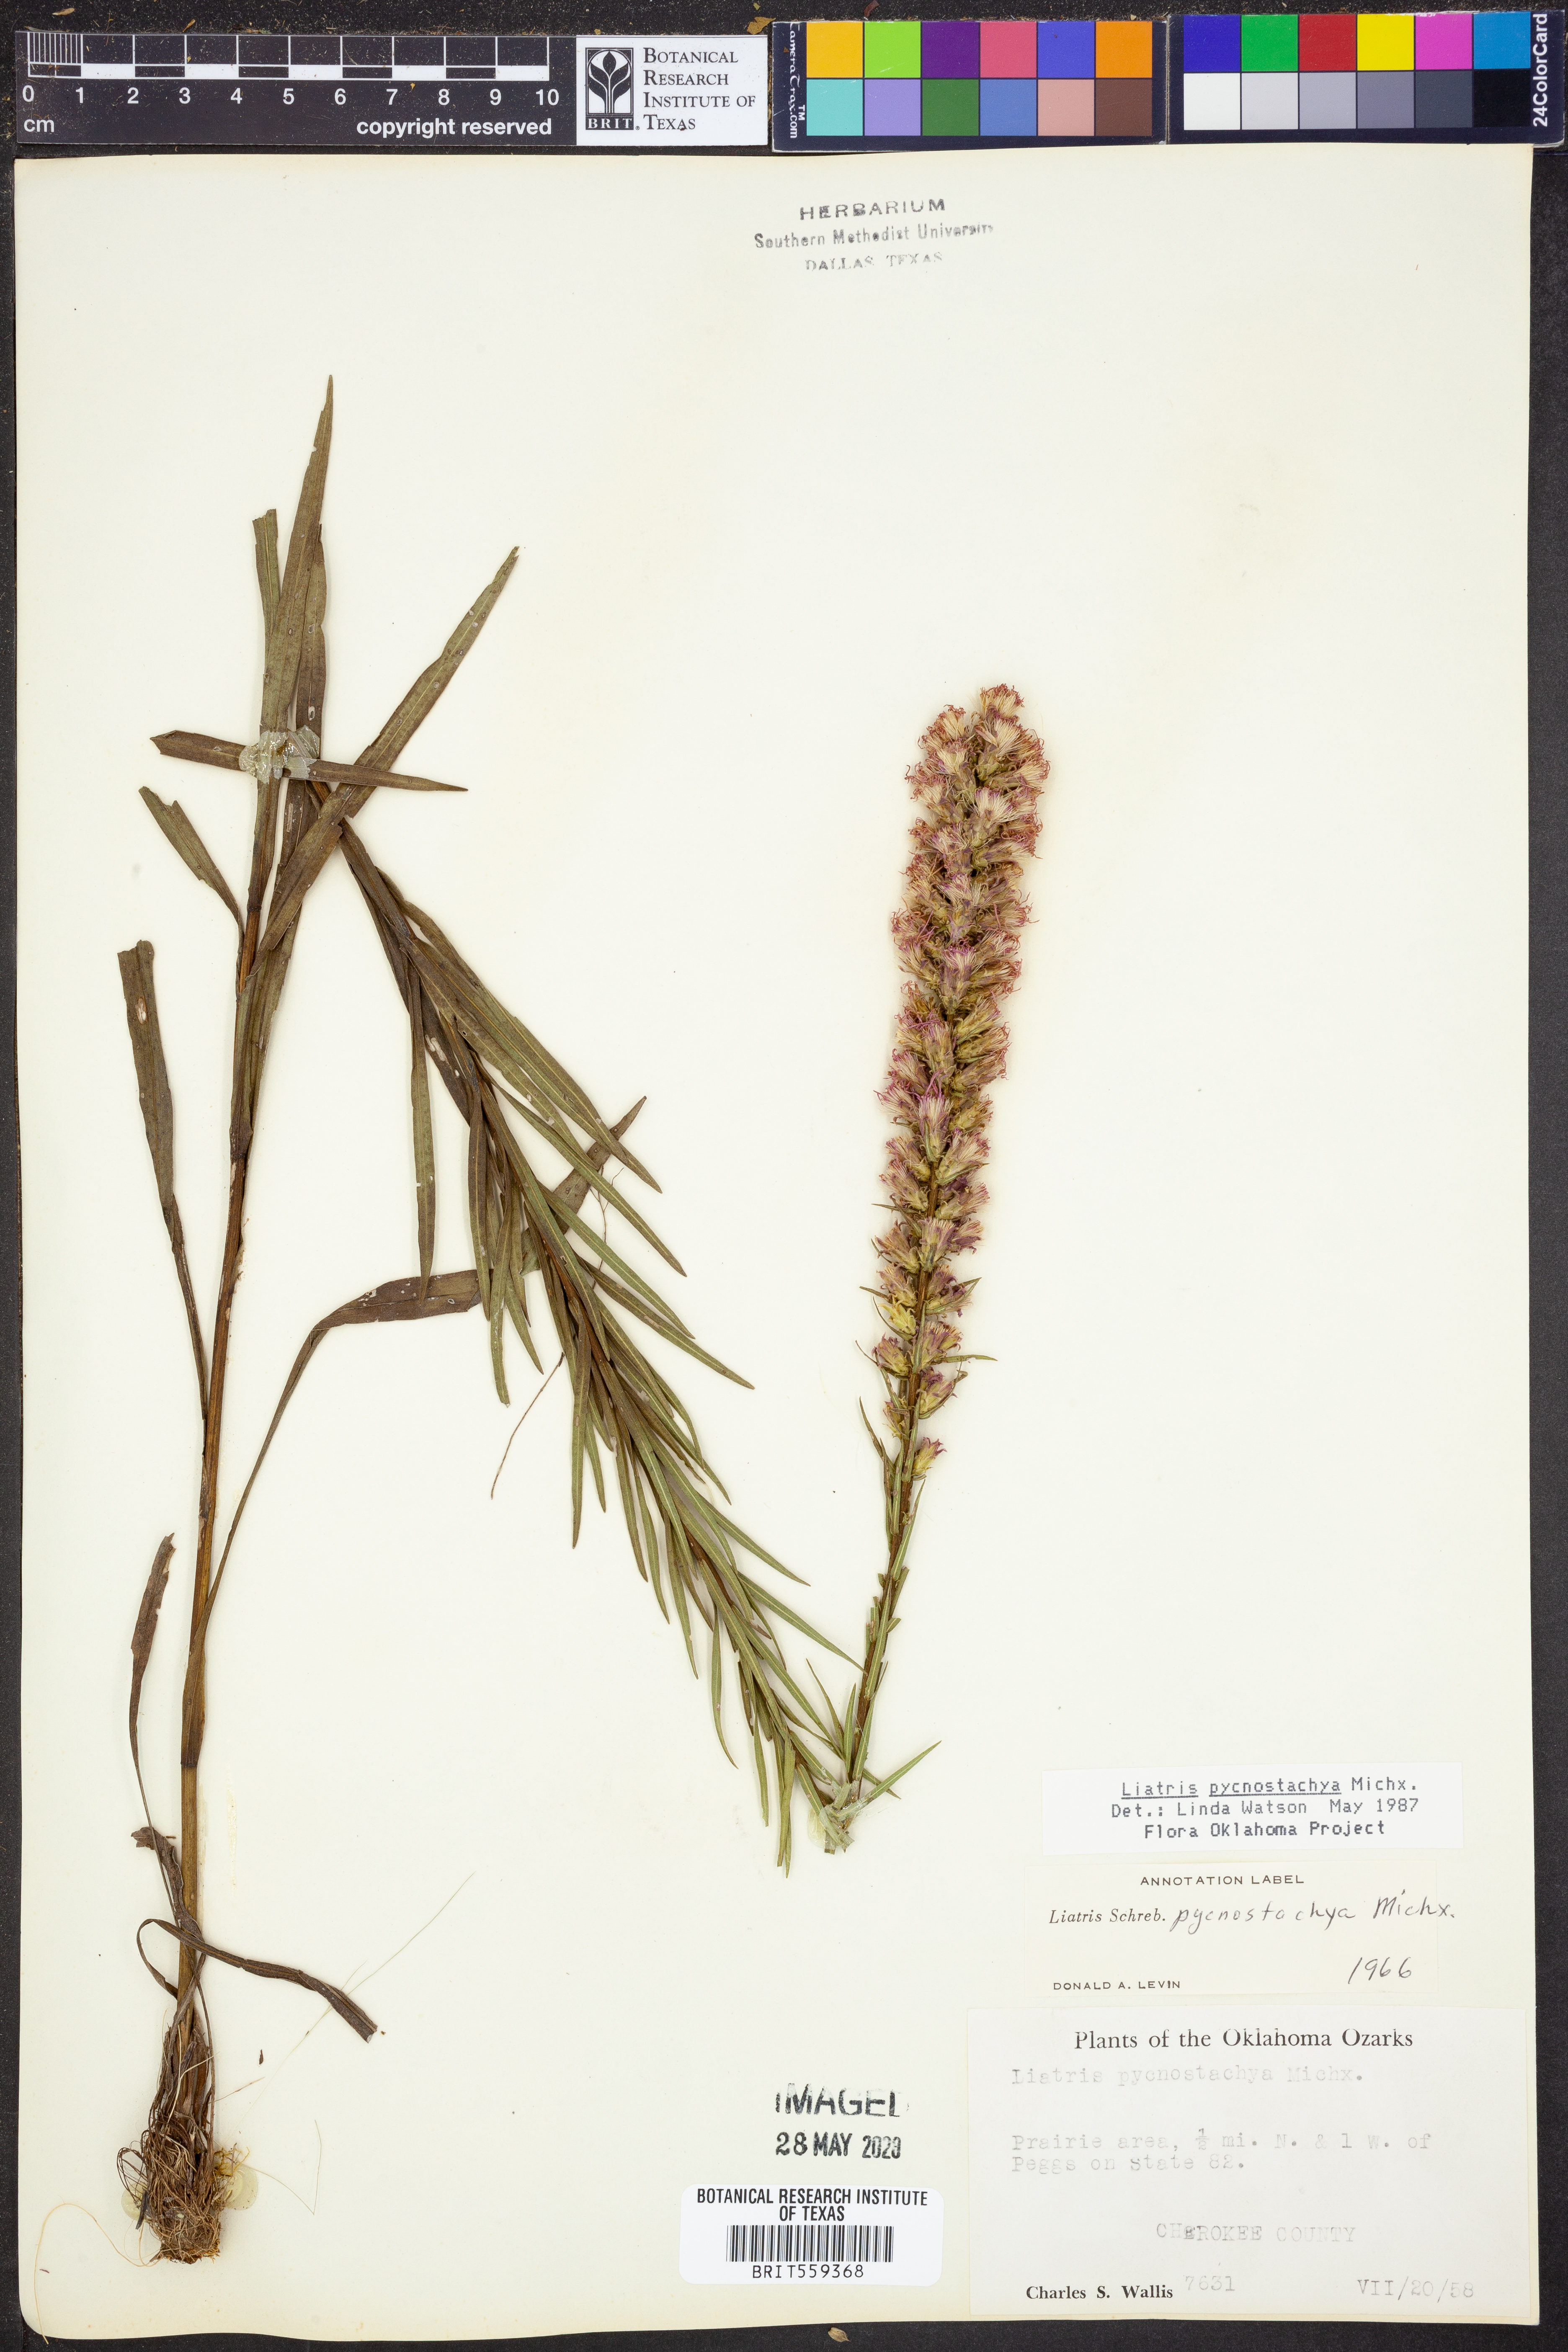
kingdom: Plantae
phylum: Tracheophyta
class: Magnoliopsida
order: Asterales
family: Asteraceae
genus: Liatris
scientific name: Liatris pycnostachya
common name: Cattail gayfeather
